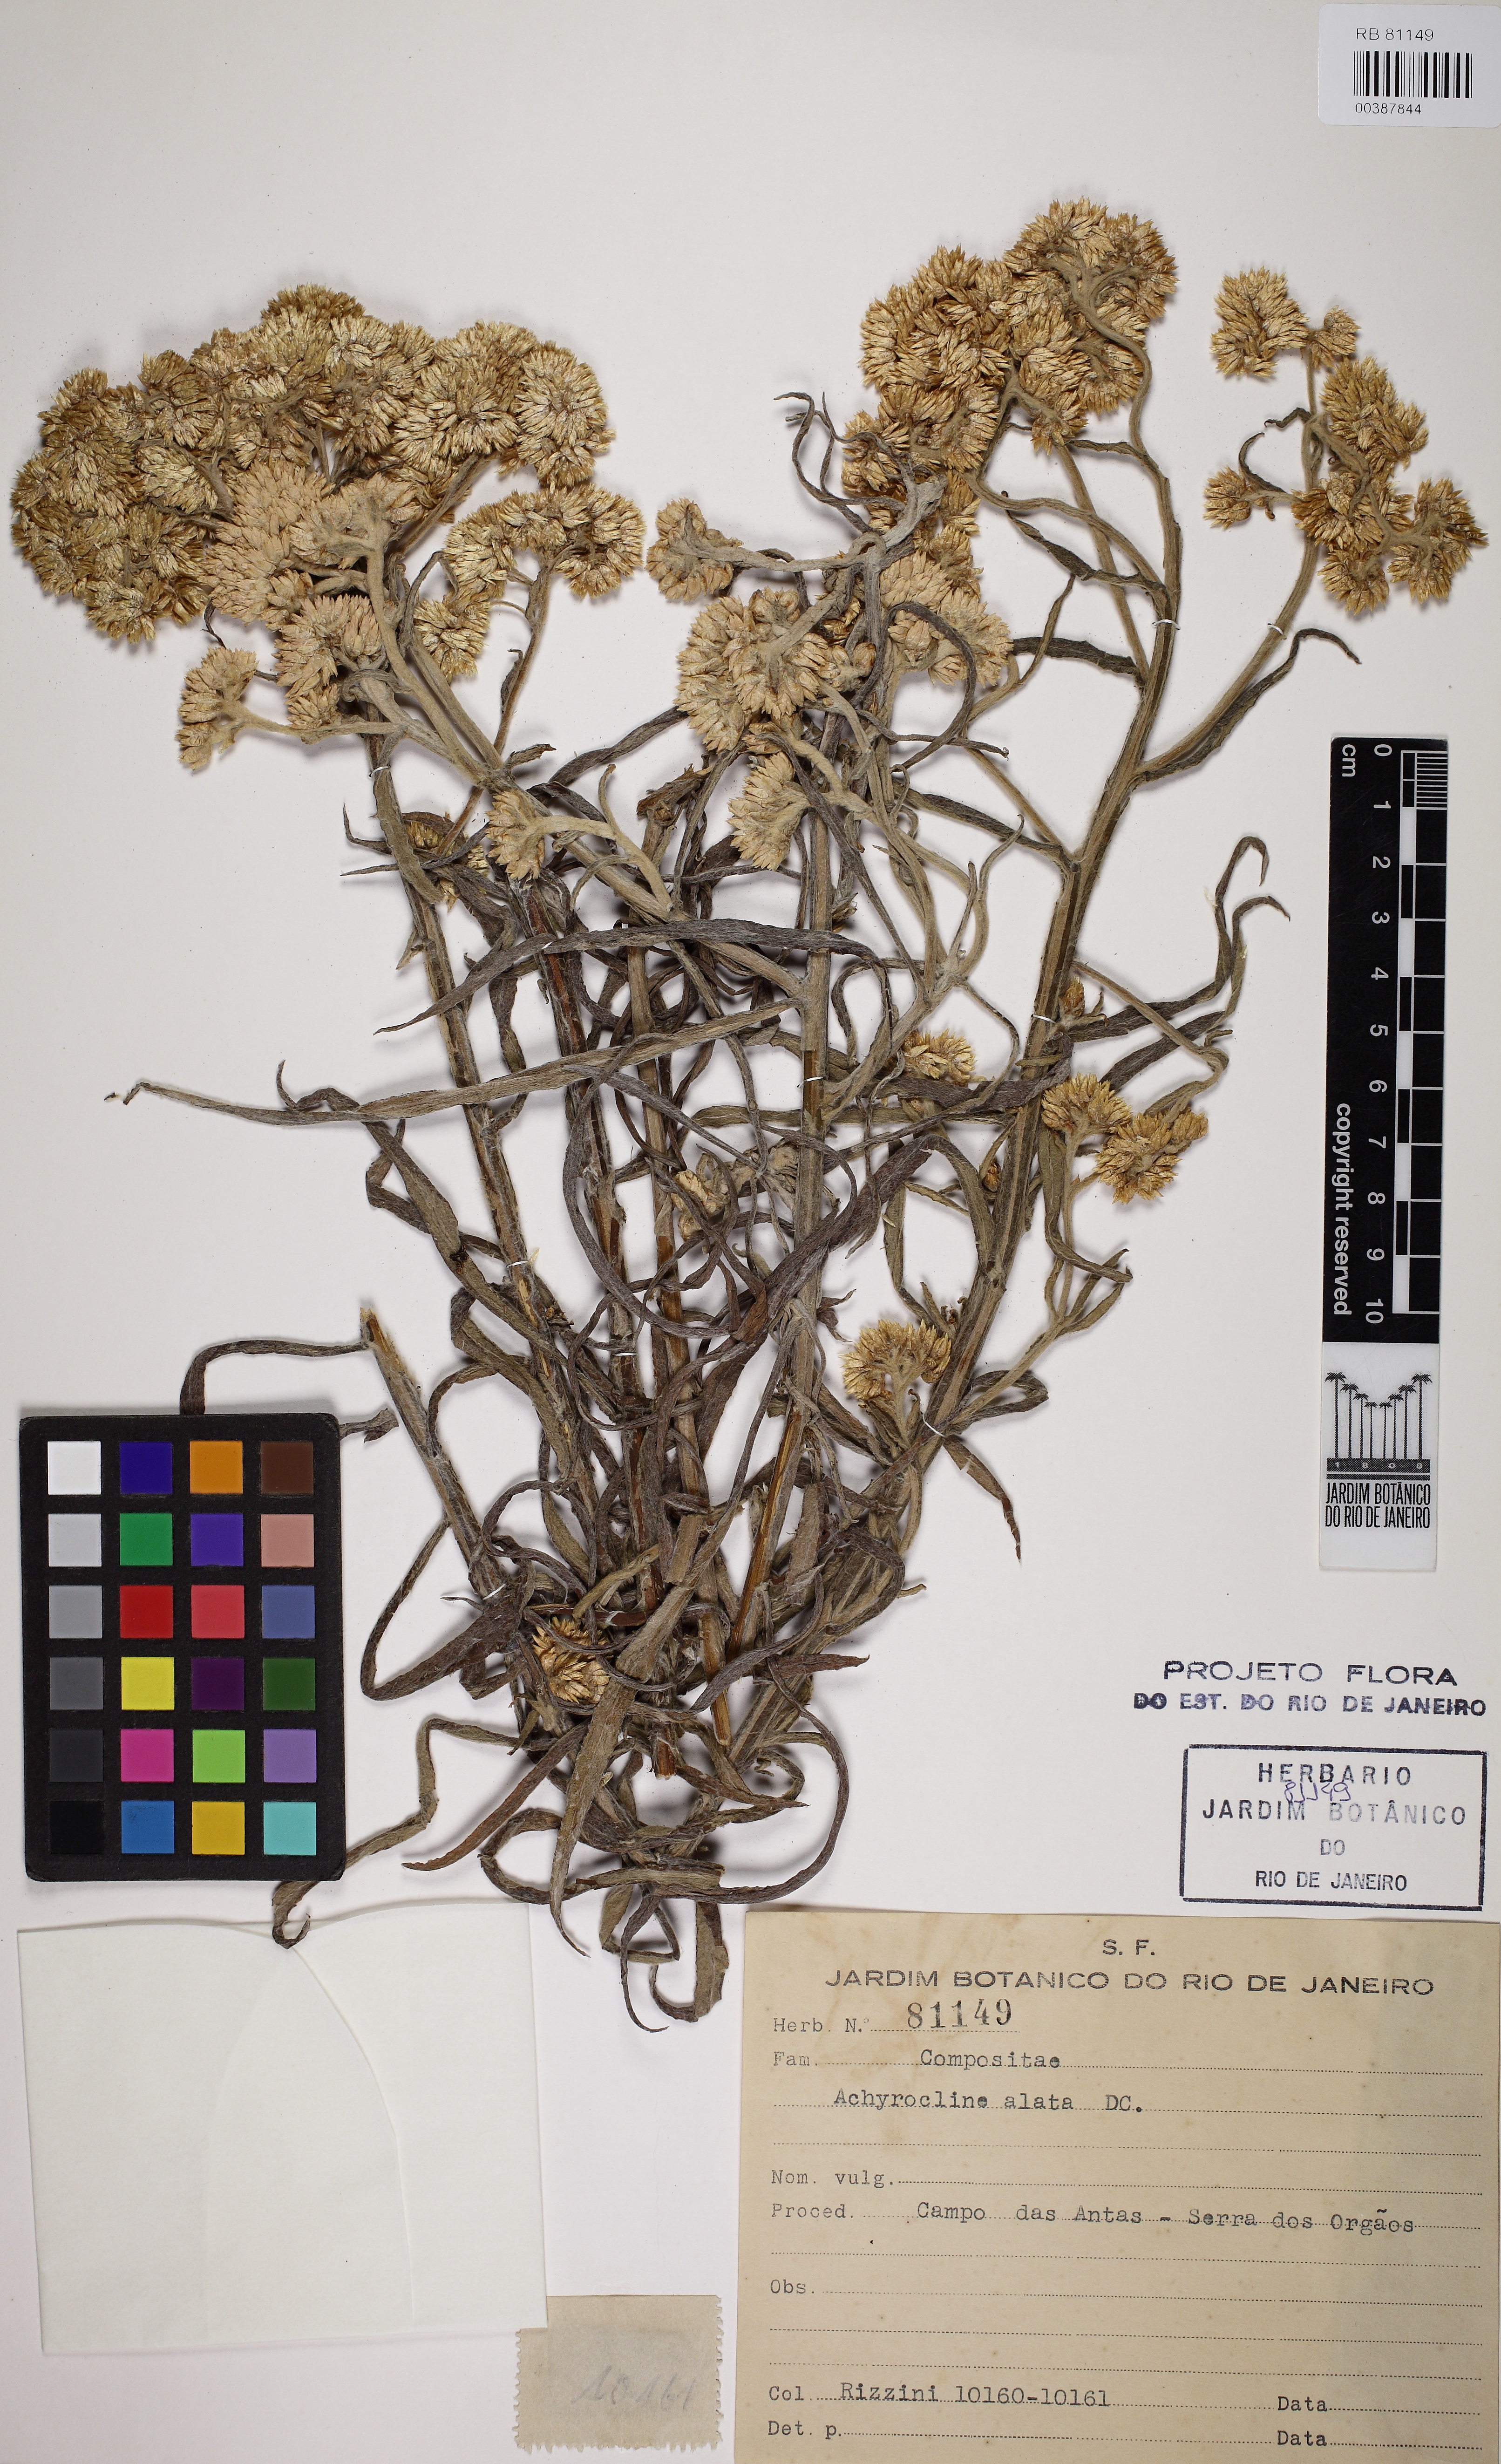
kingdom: Plantae
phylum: Tracheophyta
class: Magnoliopsida
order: Asterales
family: Asteraceae
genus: Achyrocline
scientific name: Achyrocline alata
